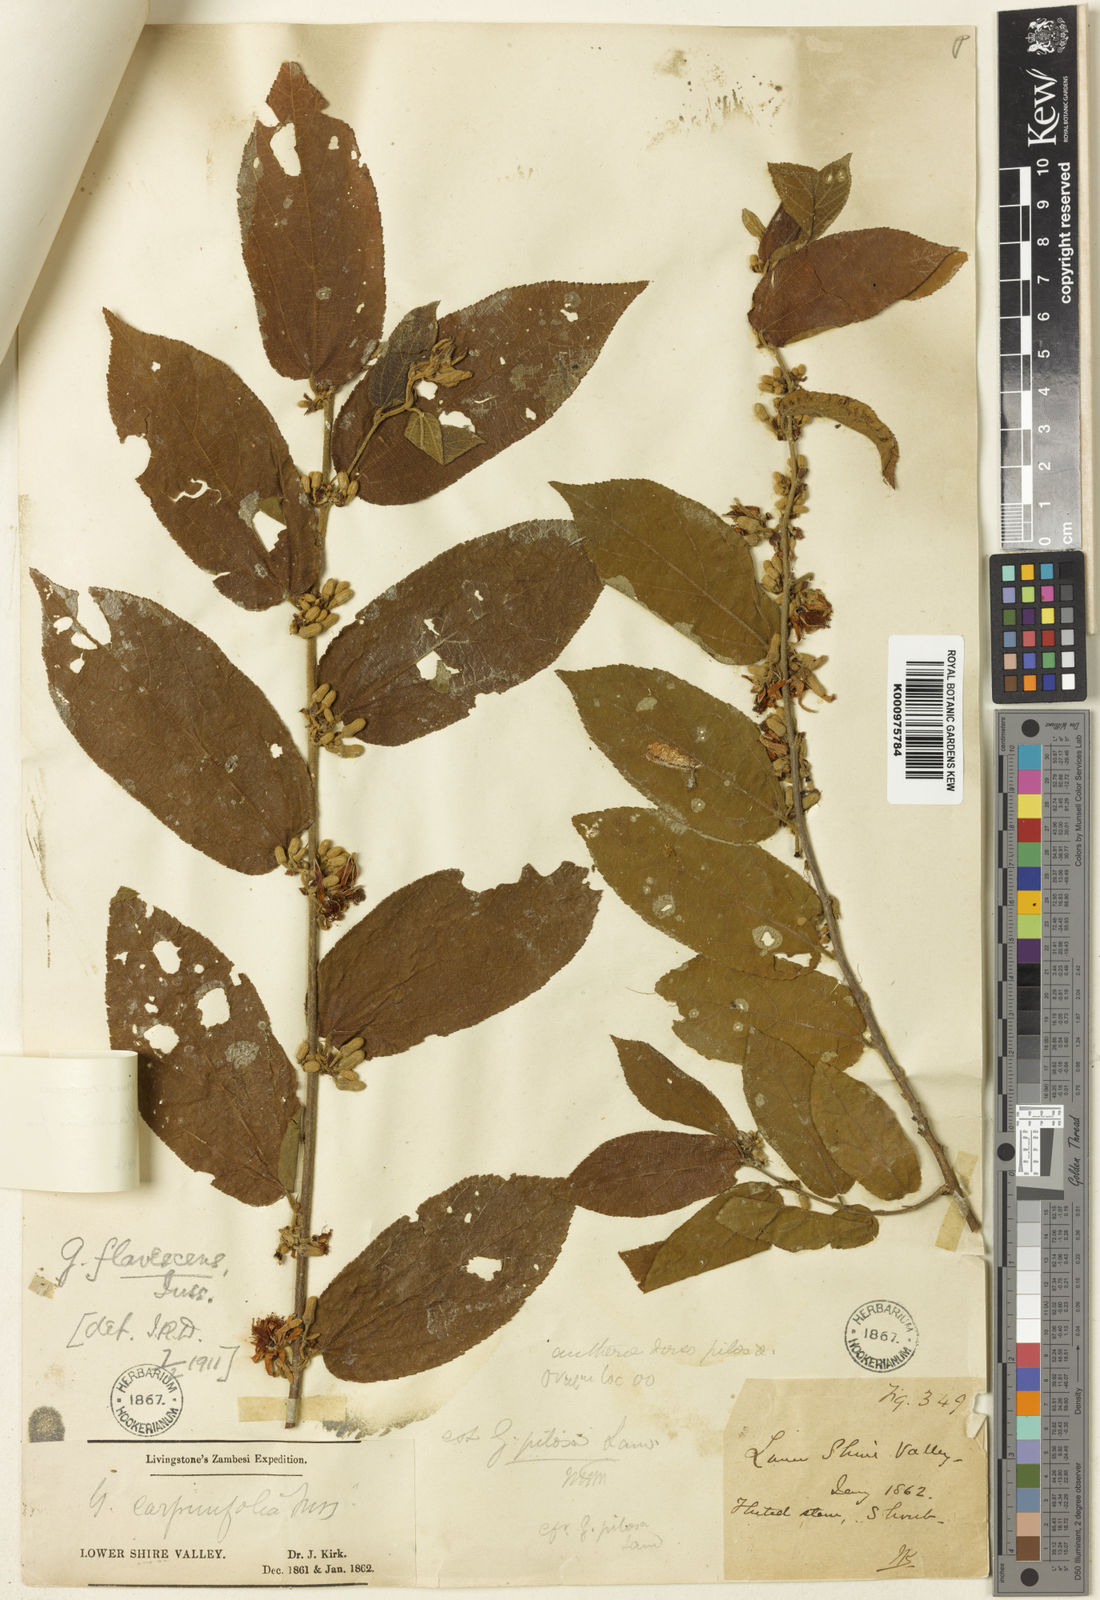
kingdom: Plantae
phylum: Tracheophyta
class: Magnoliopsida
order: Malvales
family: Malvaceae
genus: Grewia
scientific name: Grewia flavescens
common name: Sandpaper raisin
